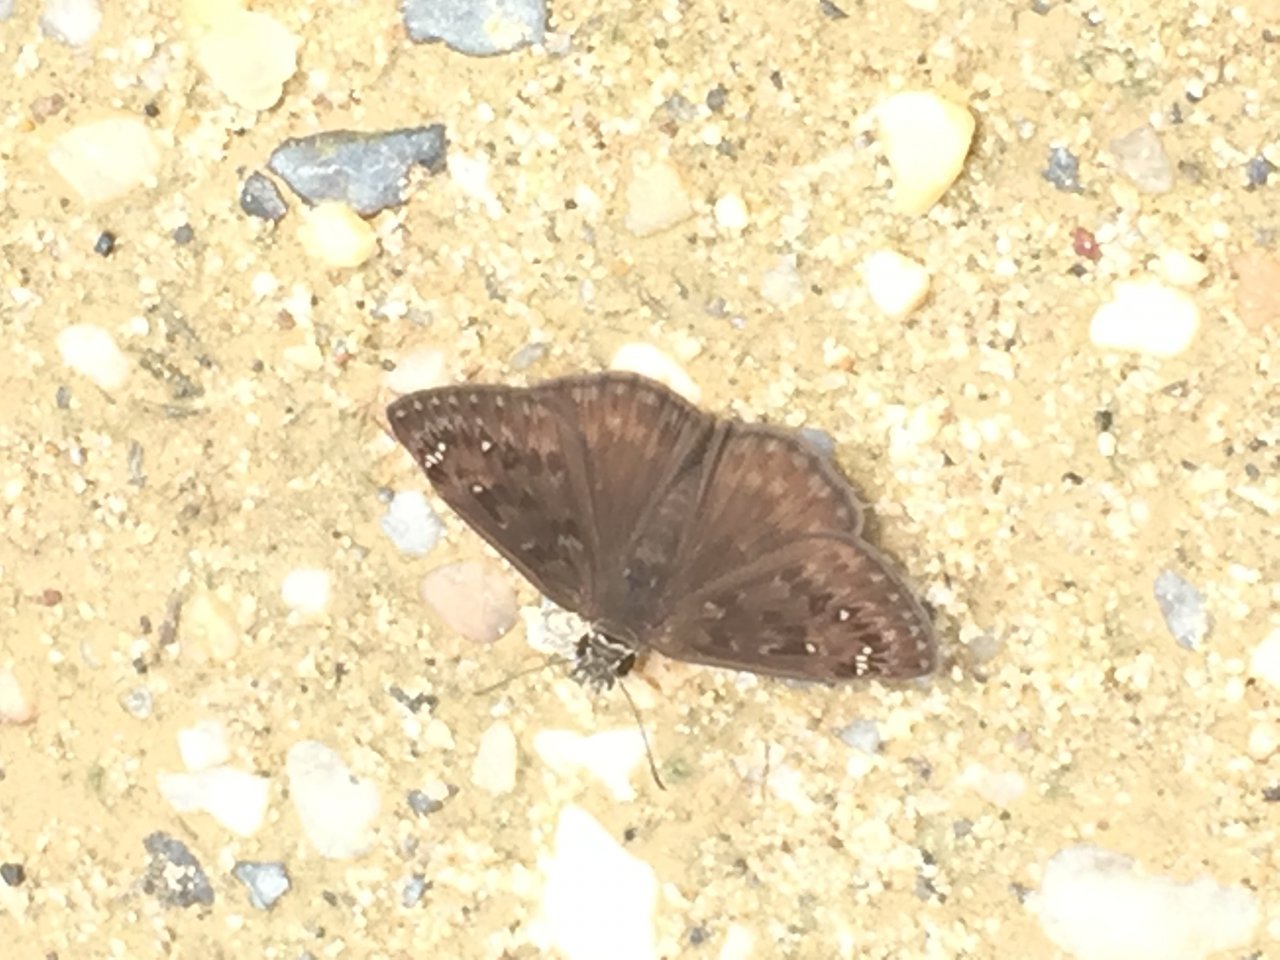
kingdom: Animalia
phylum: Arthropoda
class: Insecta
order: Lepidoptera
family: Hesperiidae
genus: Gesta
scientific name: Gesta
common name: Horace's Duskywing
